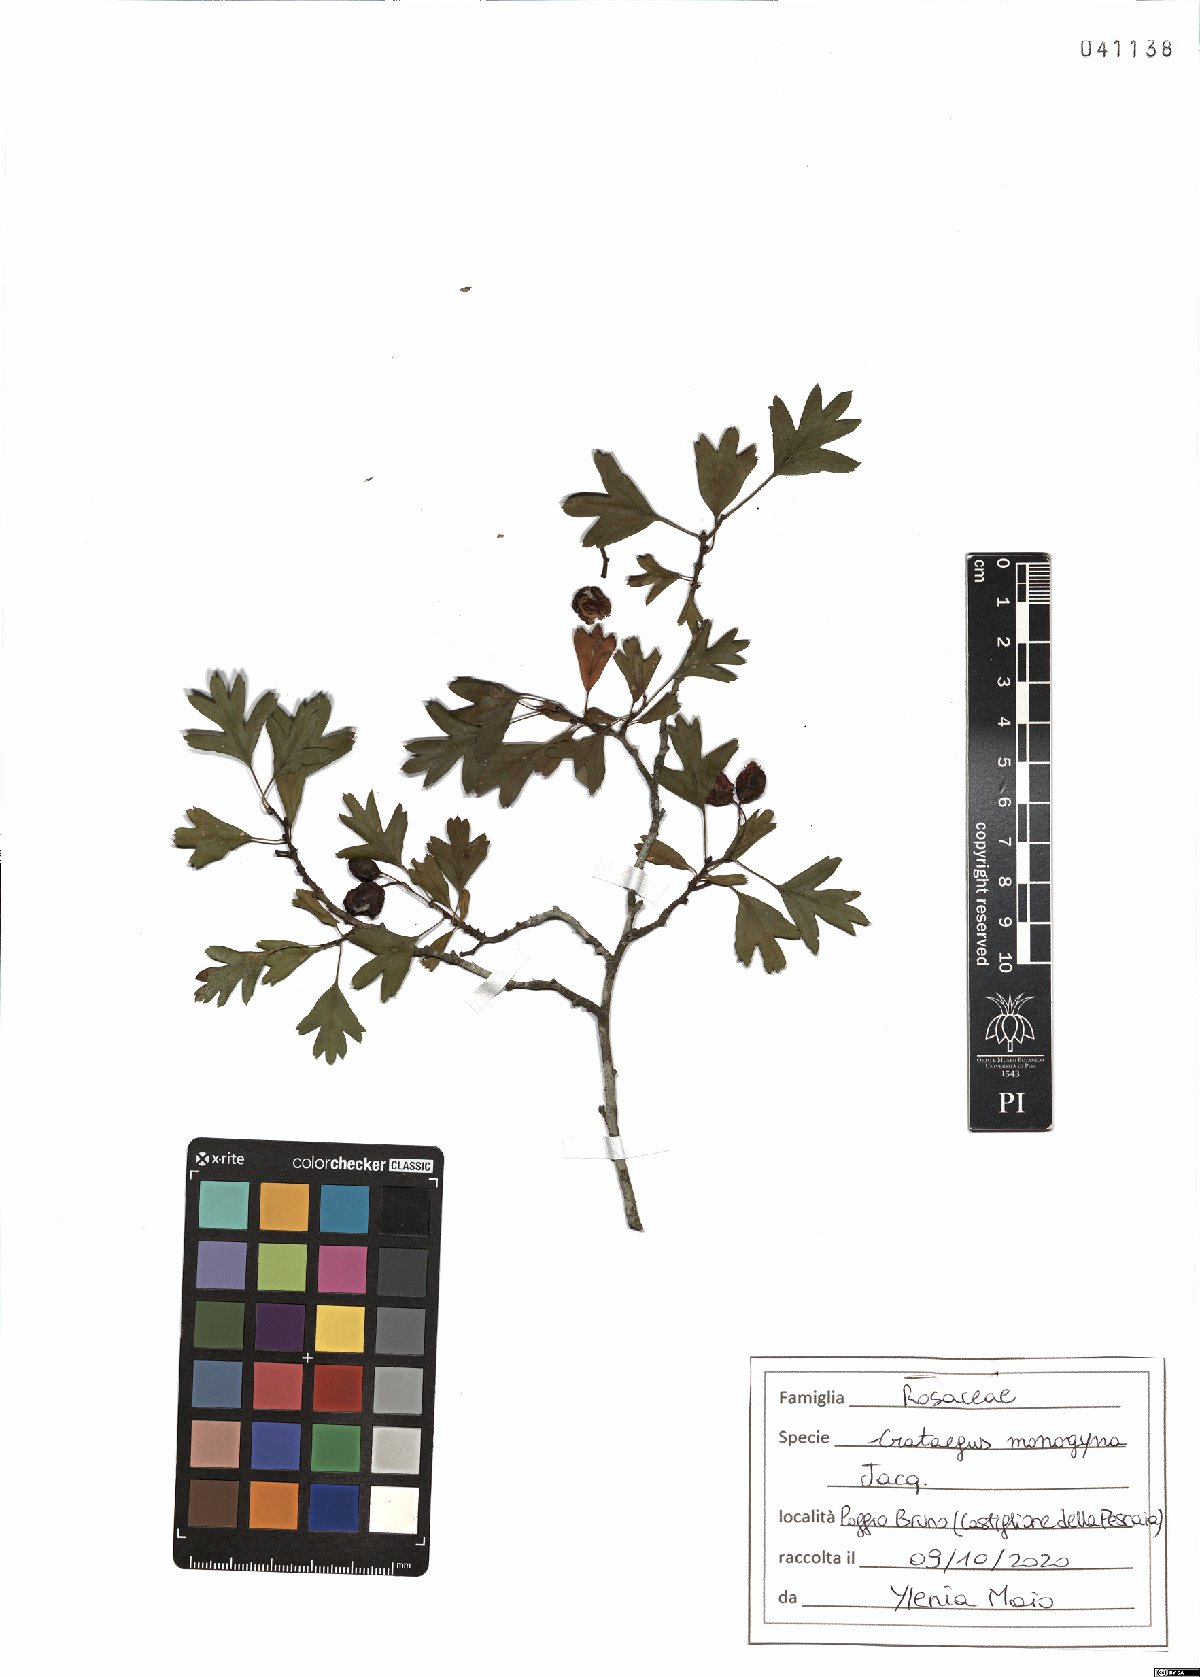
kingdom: Plantae
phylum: Tracheophyta
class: Magnoliopsida
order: Rosales
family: Rosaceae
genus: Crataegus
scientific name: Crataegus monogyna
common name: Hawthorn
